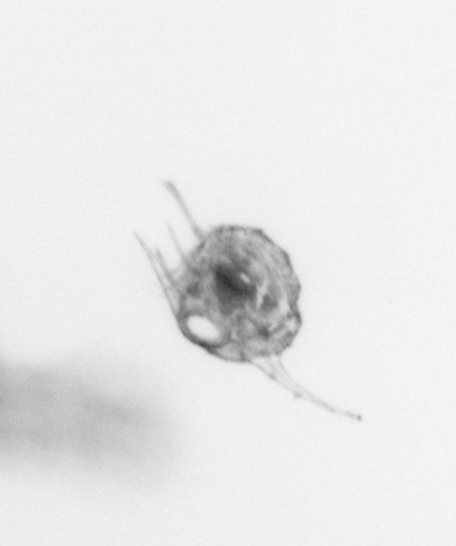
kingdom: Animalia
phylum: Arthropoda
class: Malacostraca
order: Decapoda
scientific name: Decapoda
